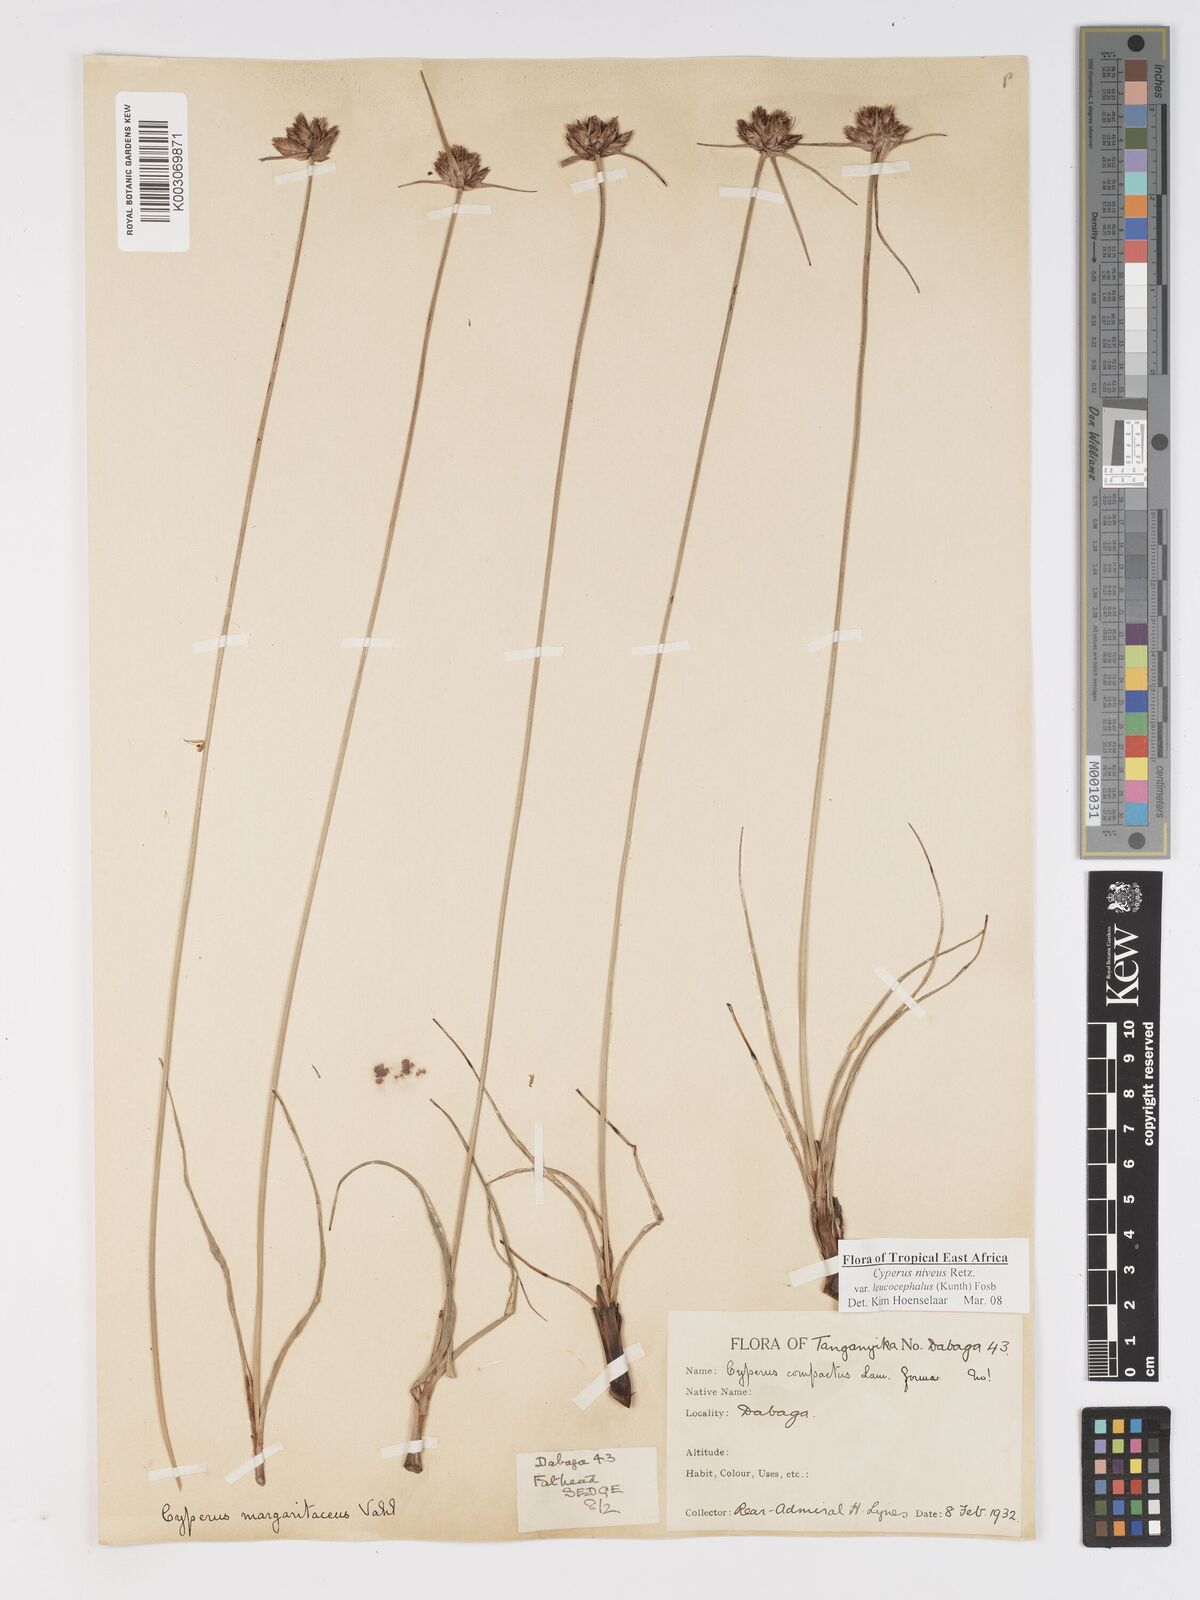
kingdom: Plantae
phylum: Tracheophyta
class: Liliopsida
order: Poales
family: Cyperaceae
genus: Cyperus
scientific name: Cyperus niveus
